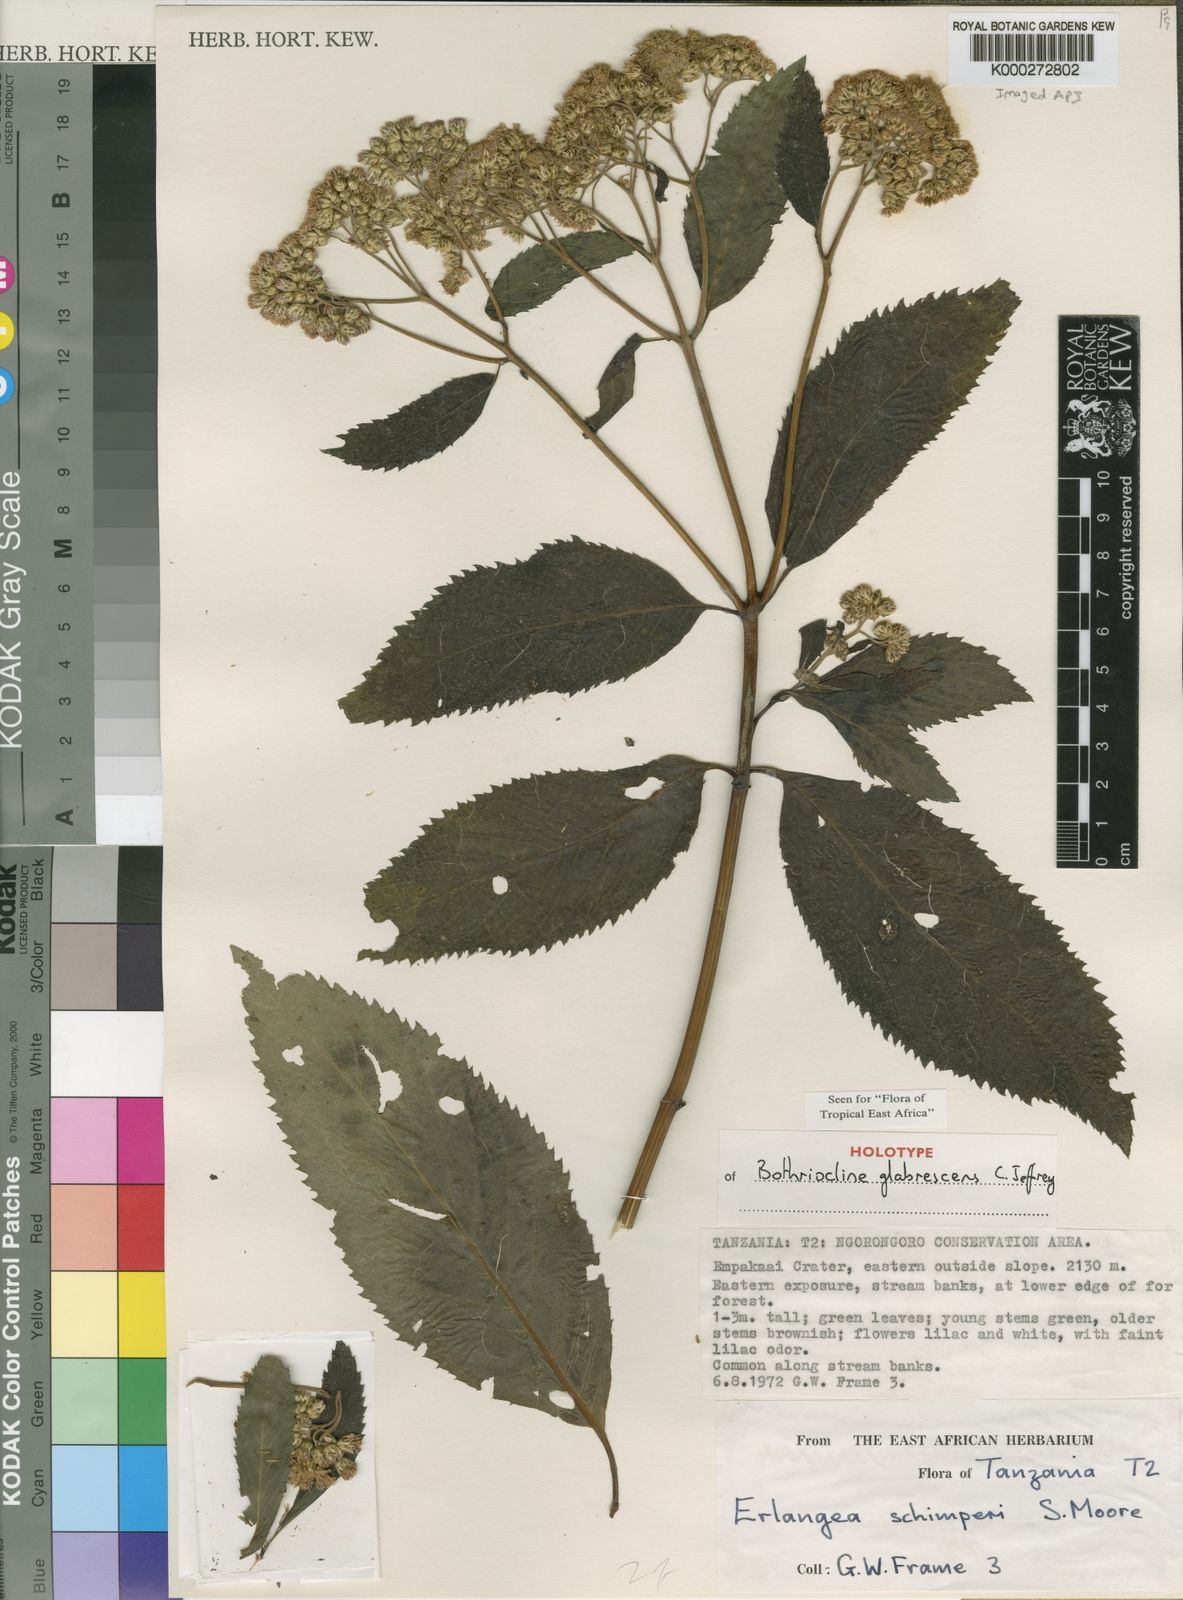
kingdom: Plantae
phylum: Tracheophyta
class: Magnoliopsida
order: Asterales
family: Asteraceae
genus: Bothriocline
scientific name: Bothriocline glabrescens
